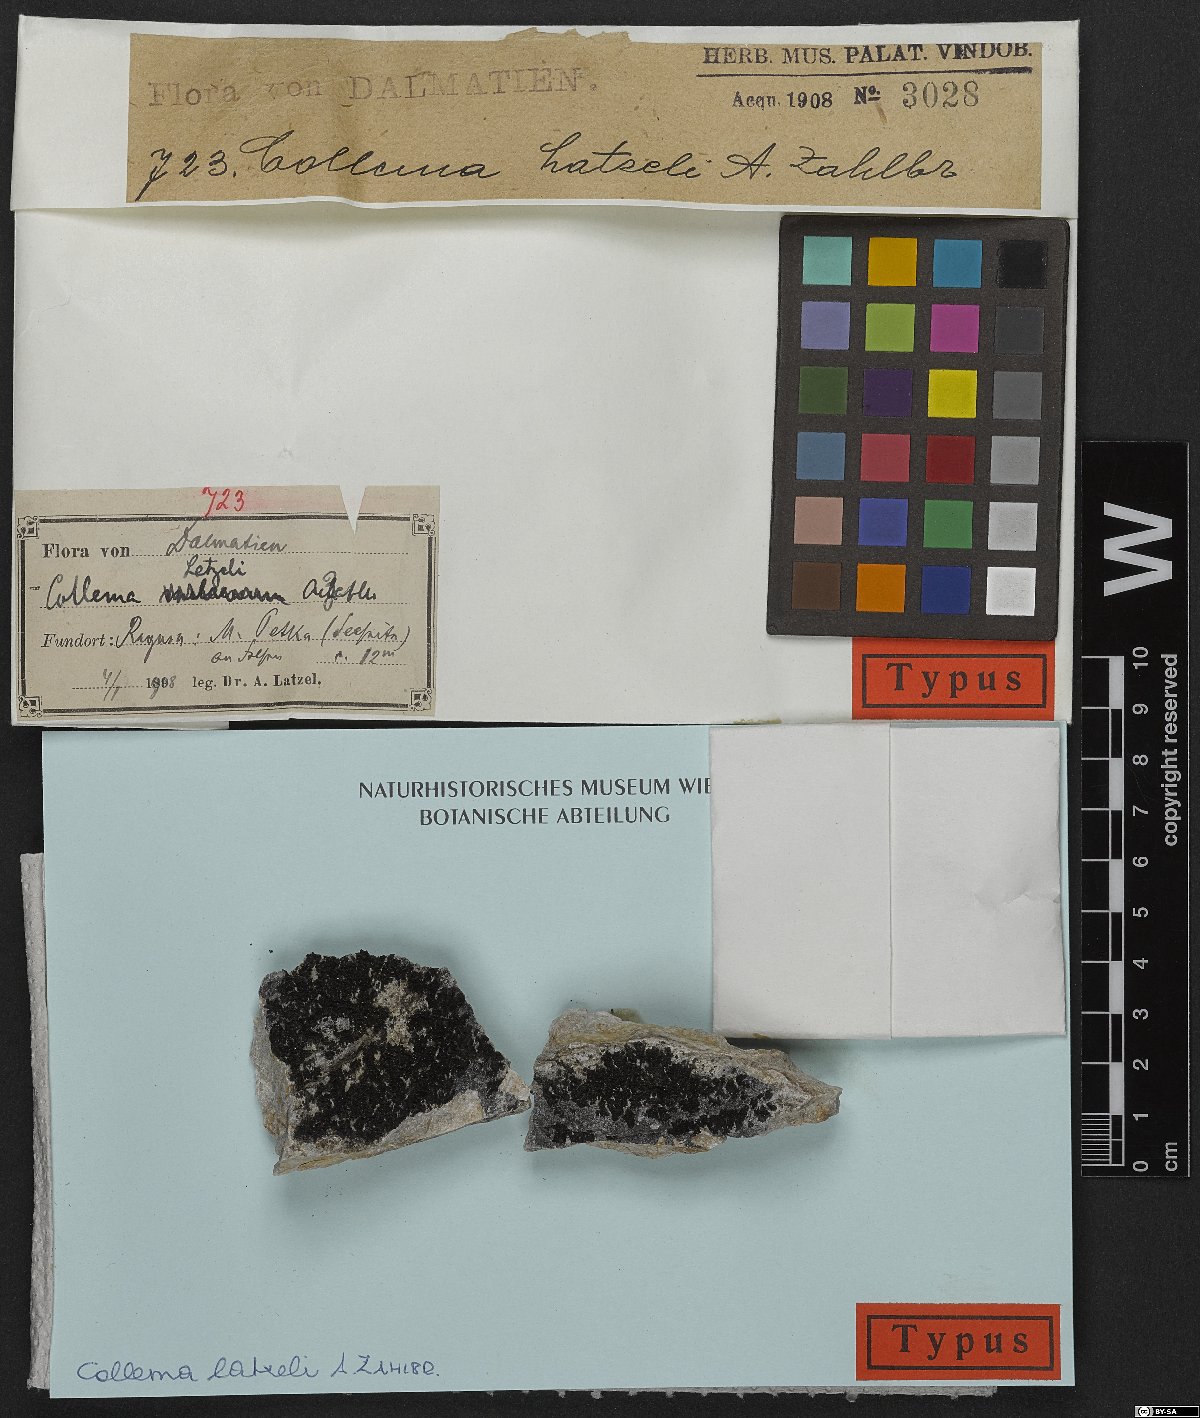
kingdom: Fungi
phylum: Ascomycota
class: Lecanoromycetes
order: Peltigerales
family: Collemataceae
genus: Lathagrium
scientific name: Lathagrium latzelii
